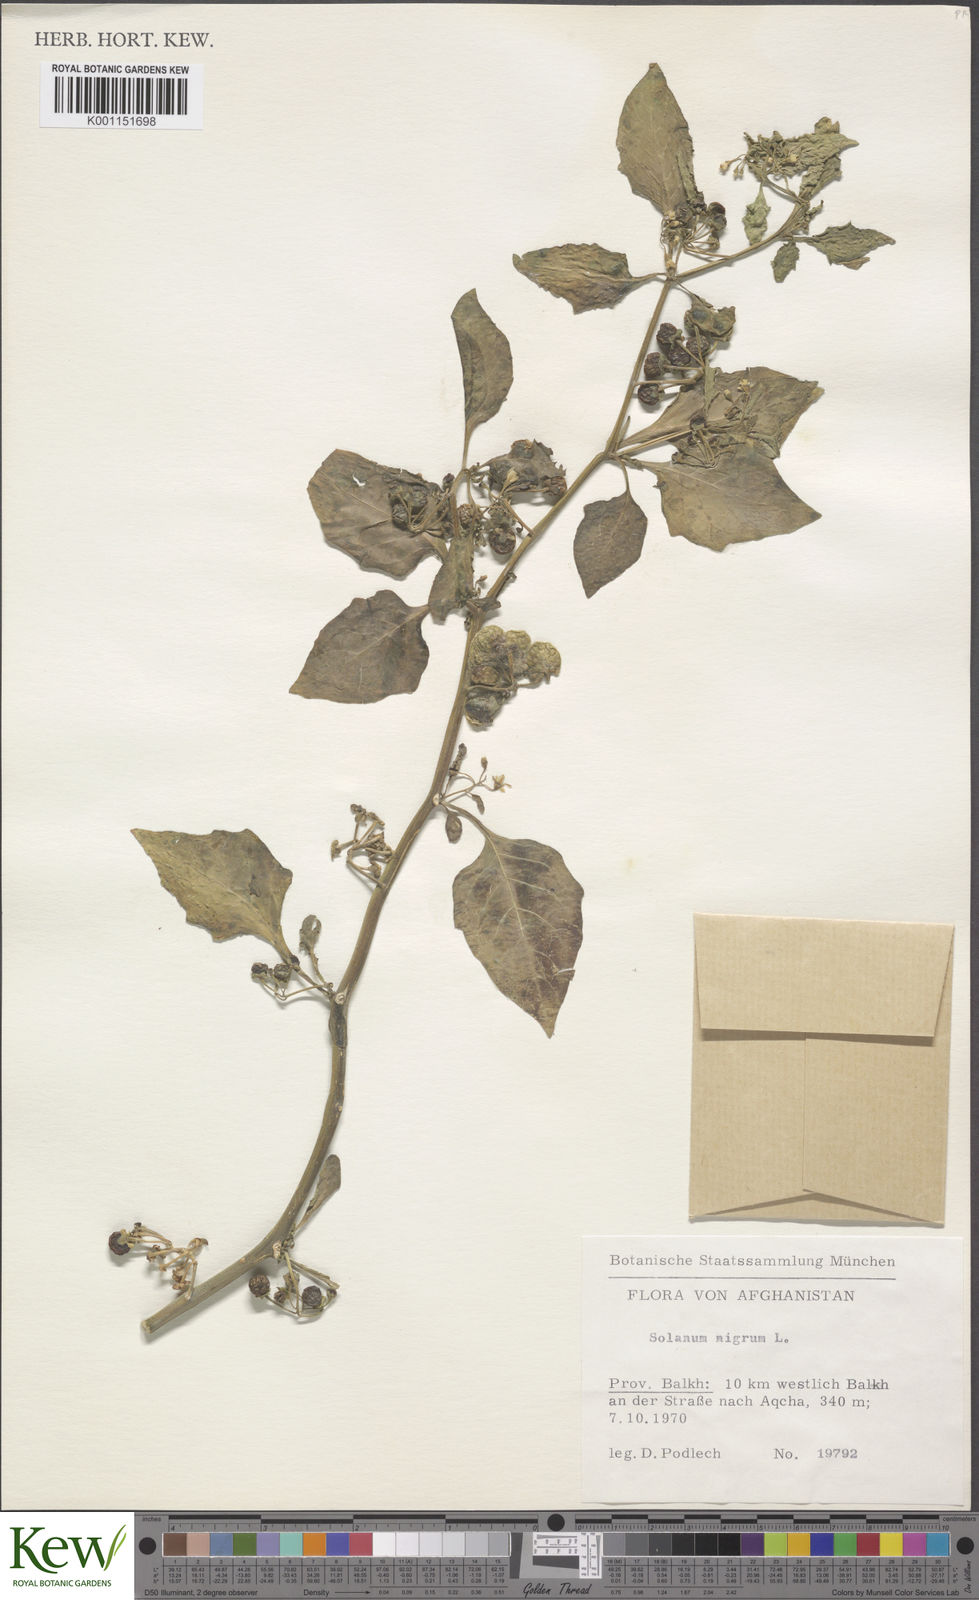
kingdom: Plantae
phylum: Tracheophyta
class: Magnoliopsida
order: Solanales
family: Solanaceae
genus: Solanum
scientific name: Solanum
